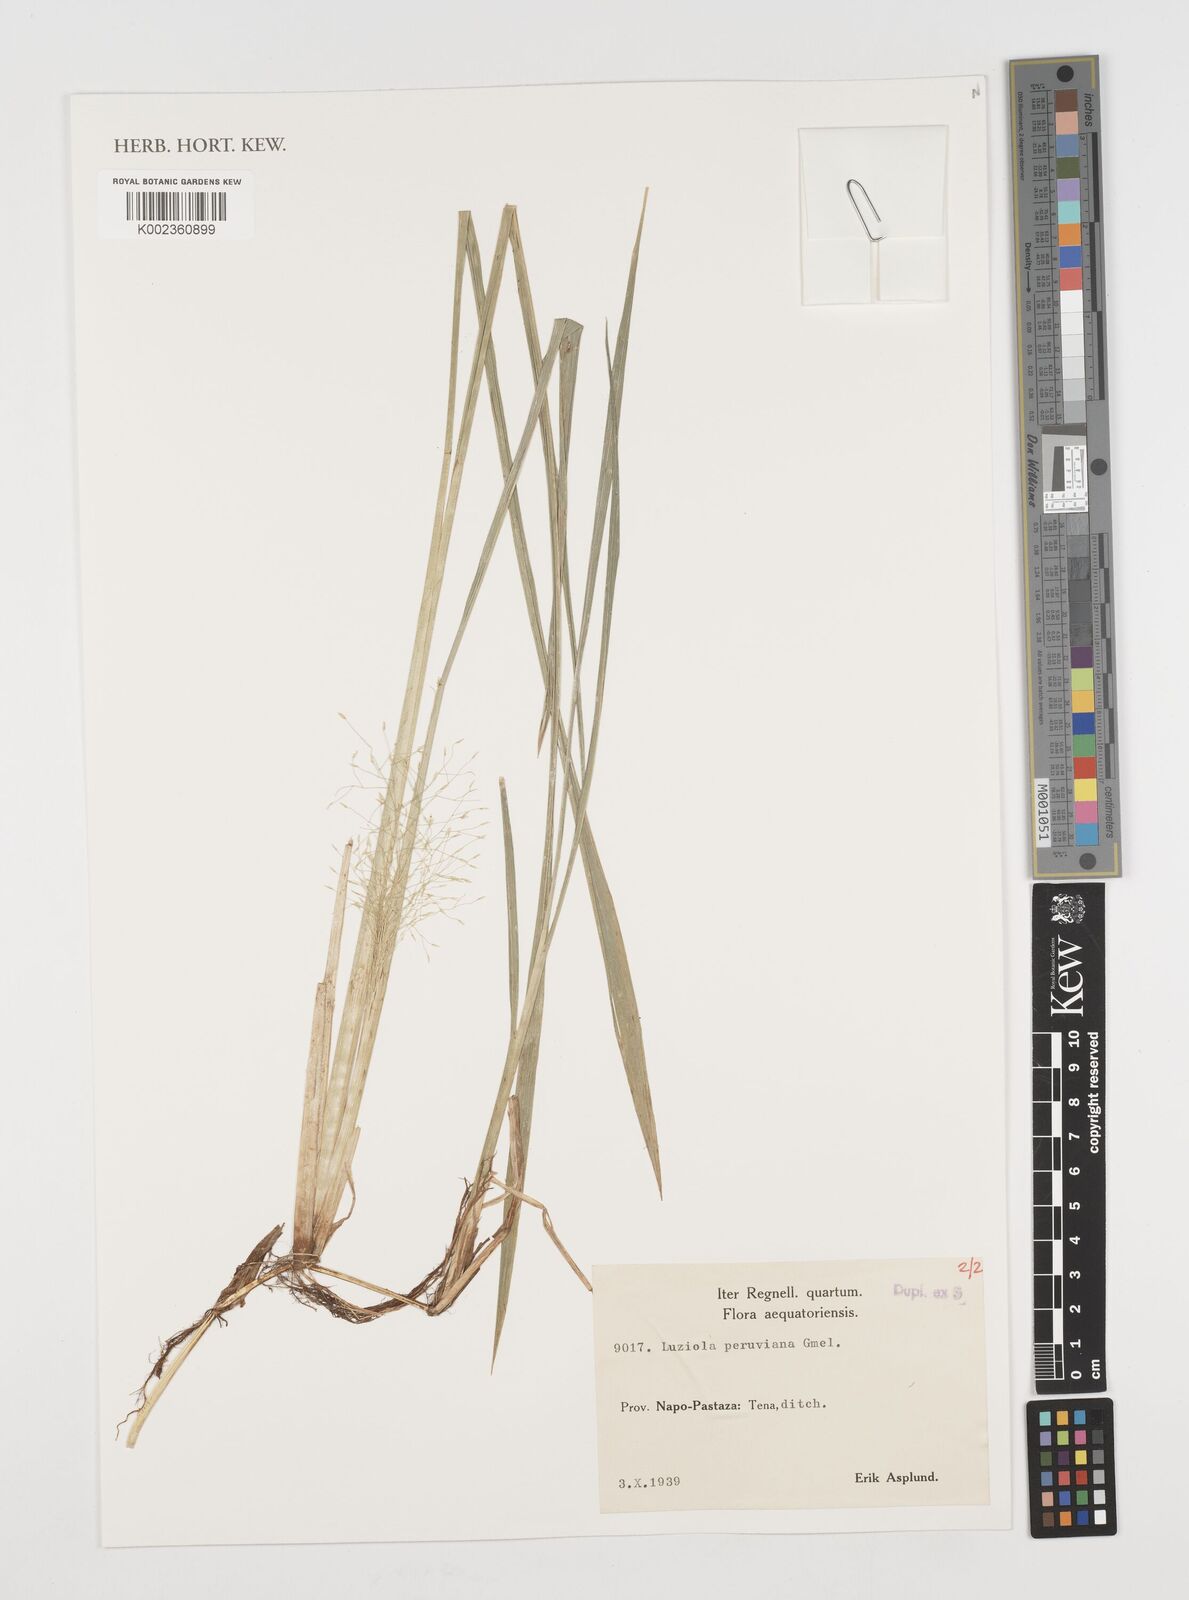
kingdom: Plantae
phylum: Tracheophyta
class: Liliopsida
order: Poales
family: Poaceae
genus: Luziola
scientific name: Luziola peruviana
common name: Peruvian watergrass
